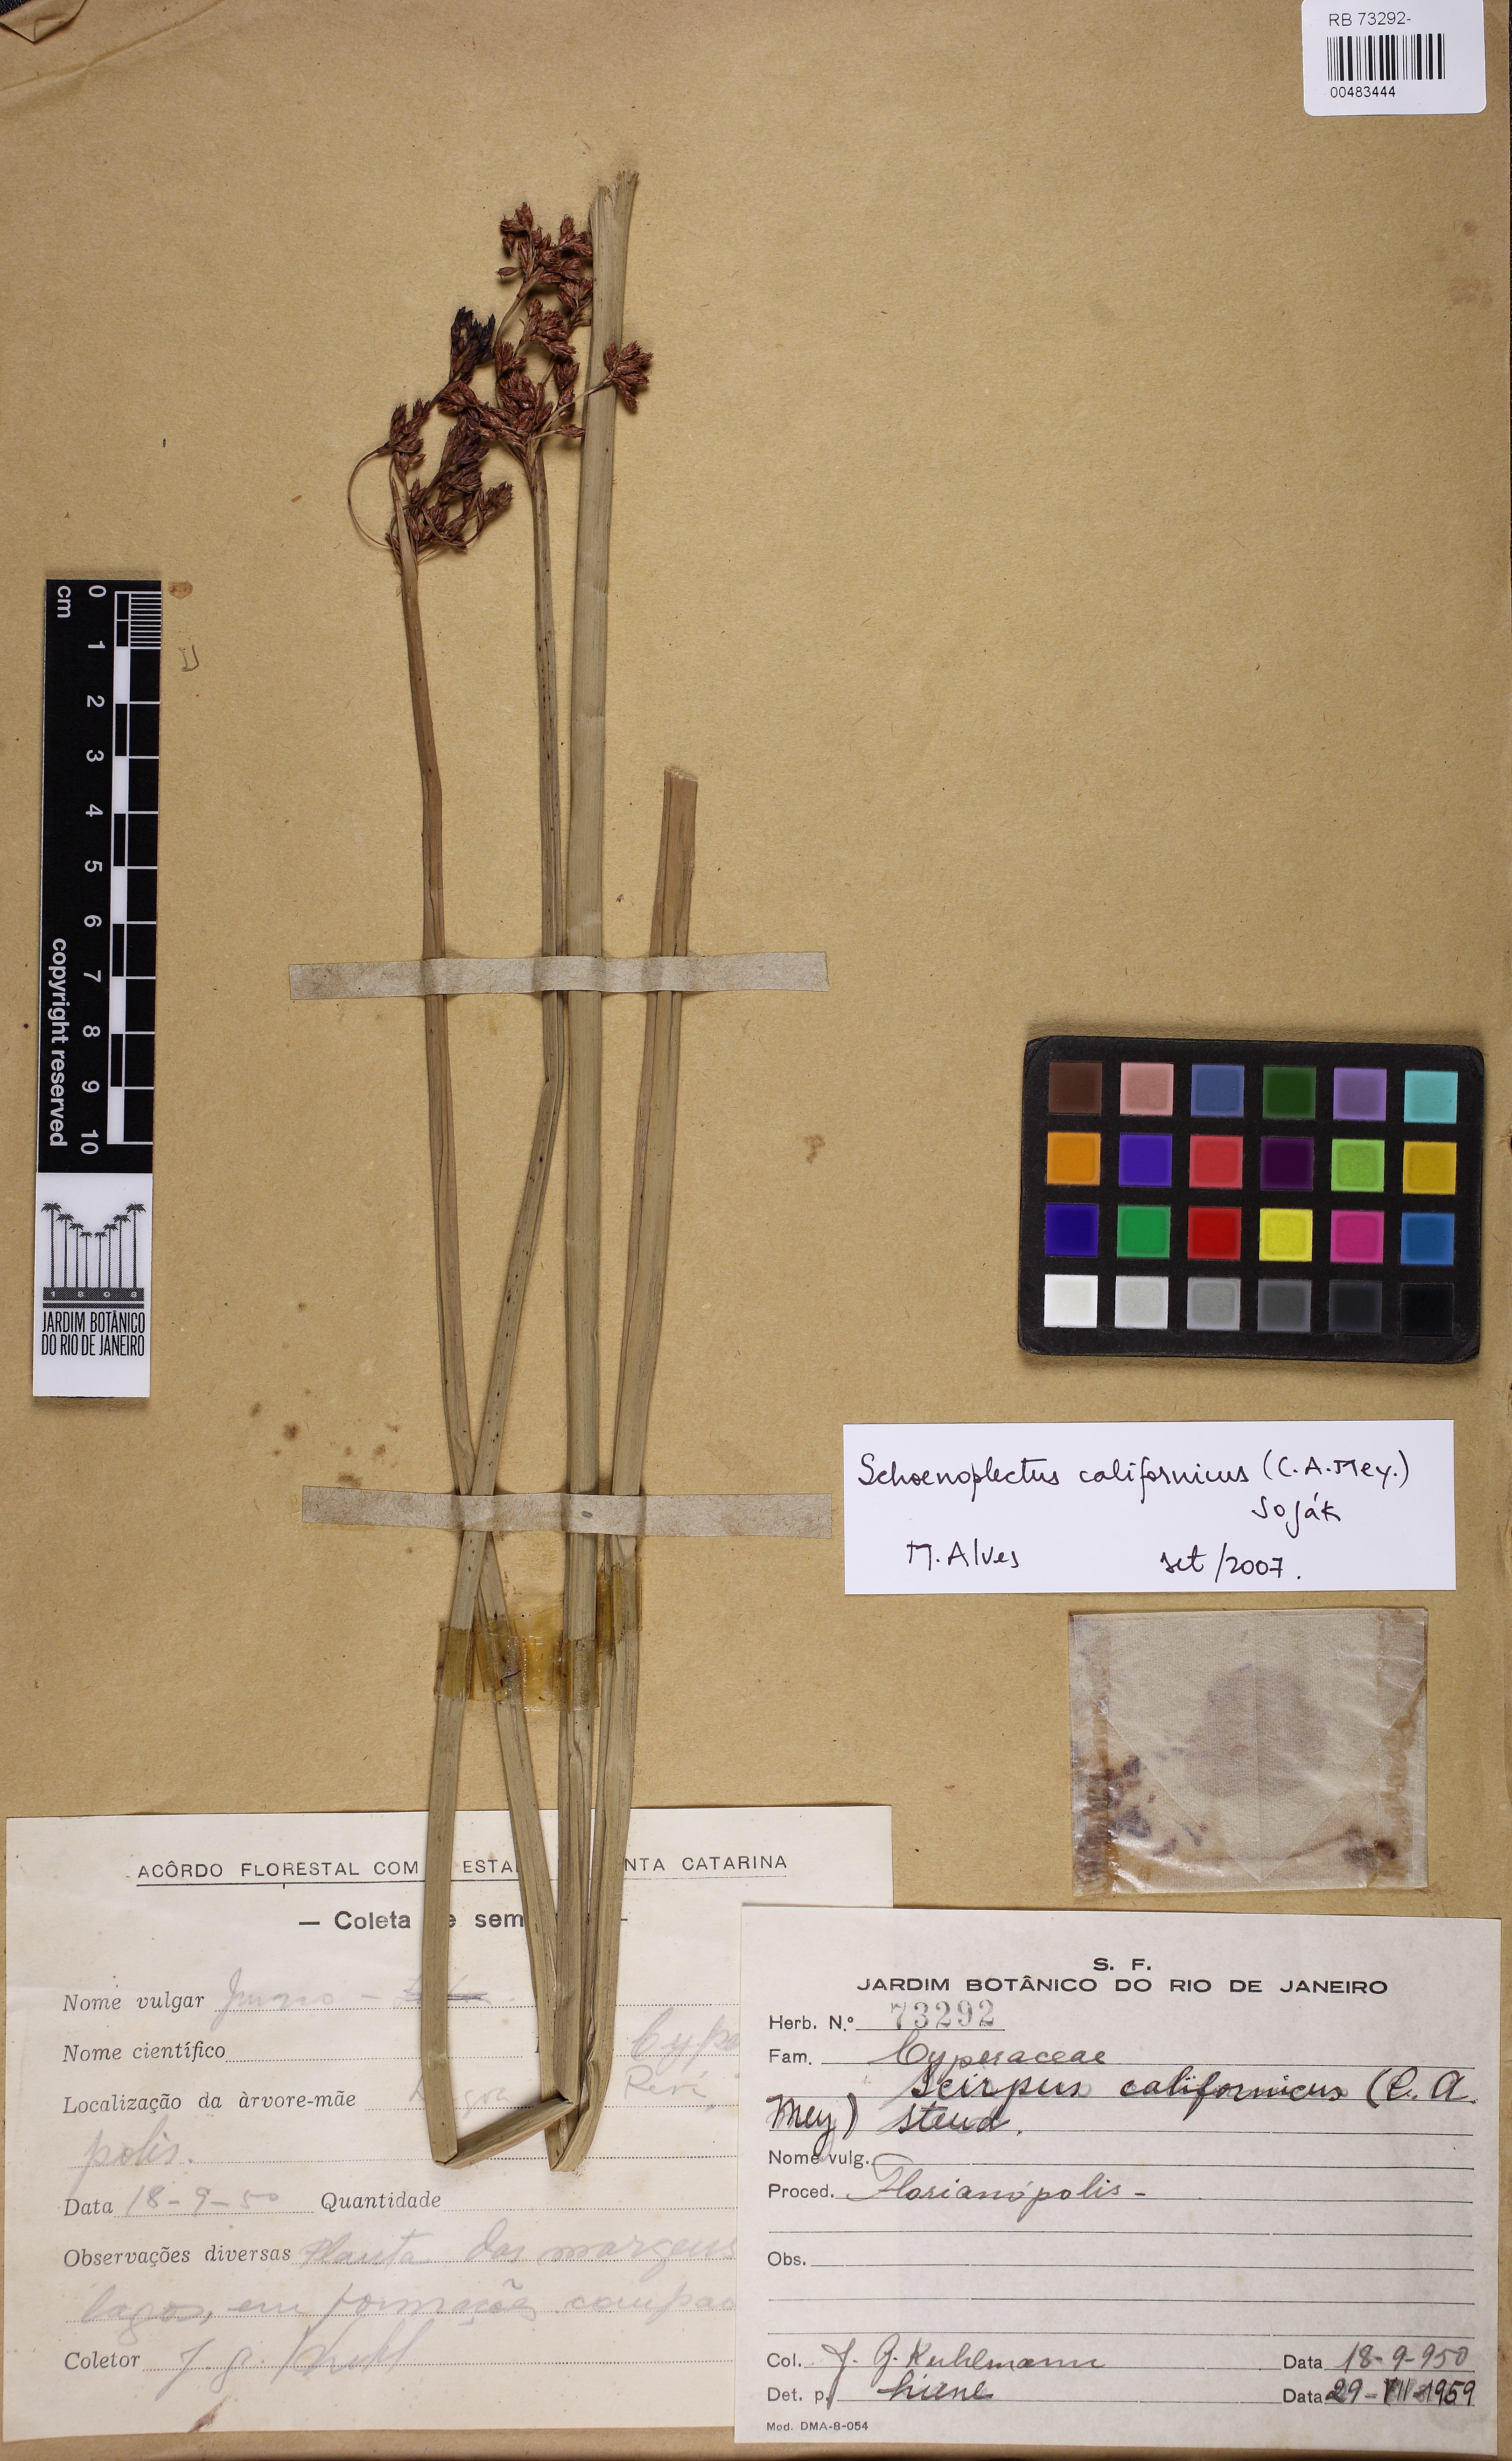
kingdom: Plantae
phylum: Tracheophyta
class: Liliopsida
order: Poales
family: Cyperaceae
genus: Schoenoplectus
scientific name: Schoenoplectus californicus
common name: California bulrush
